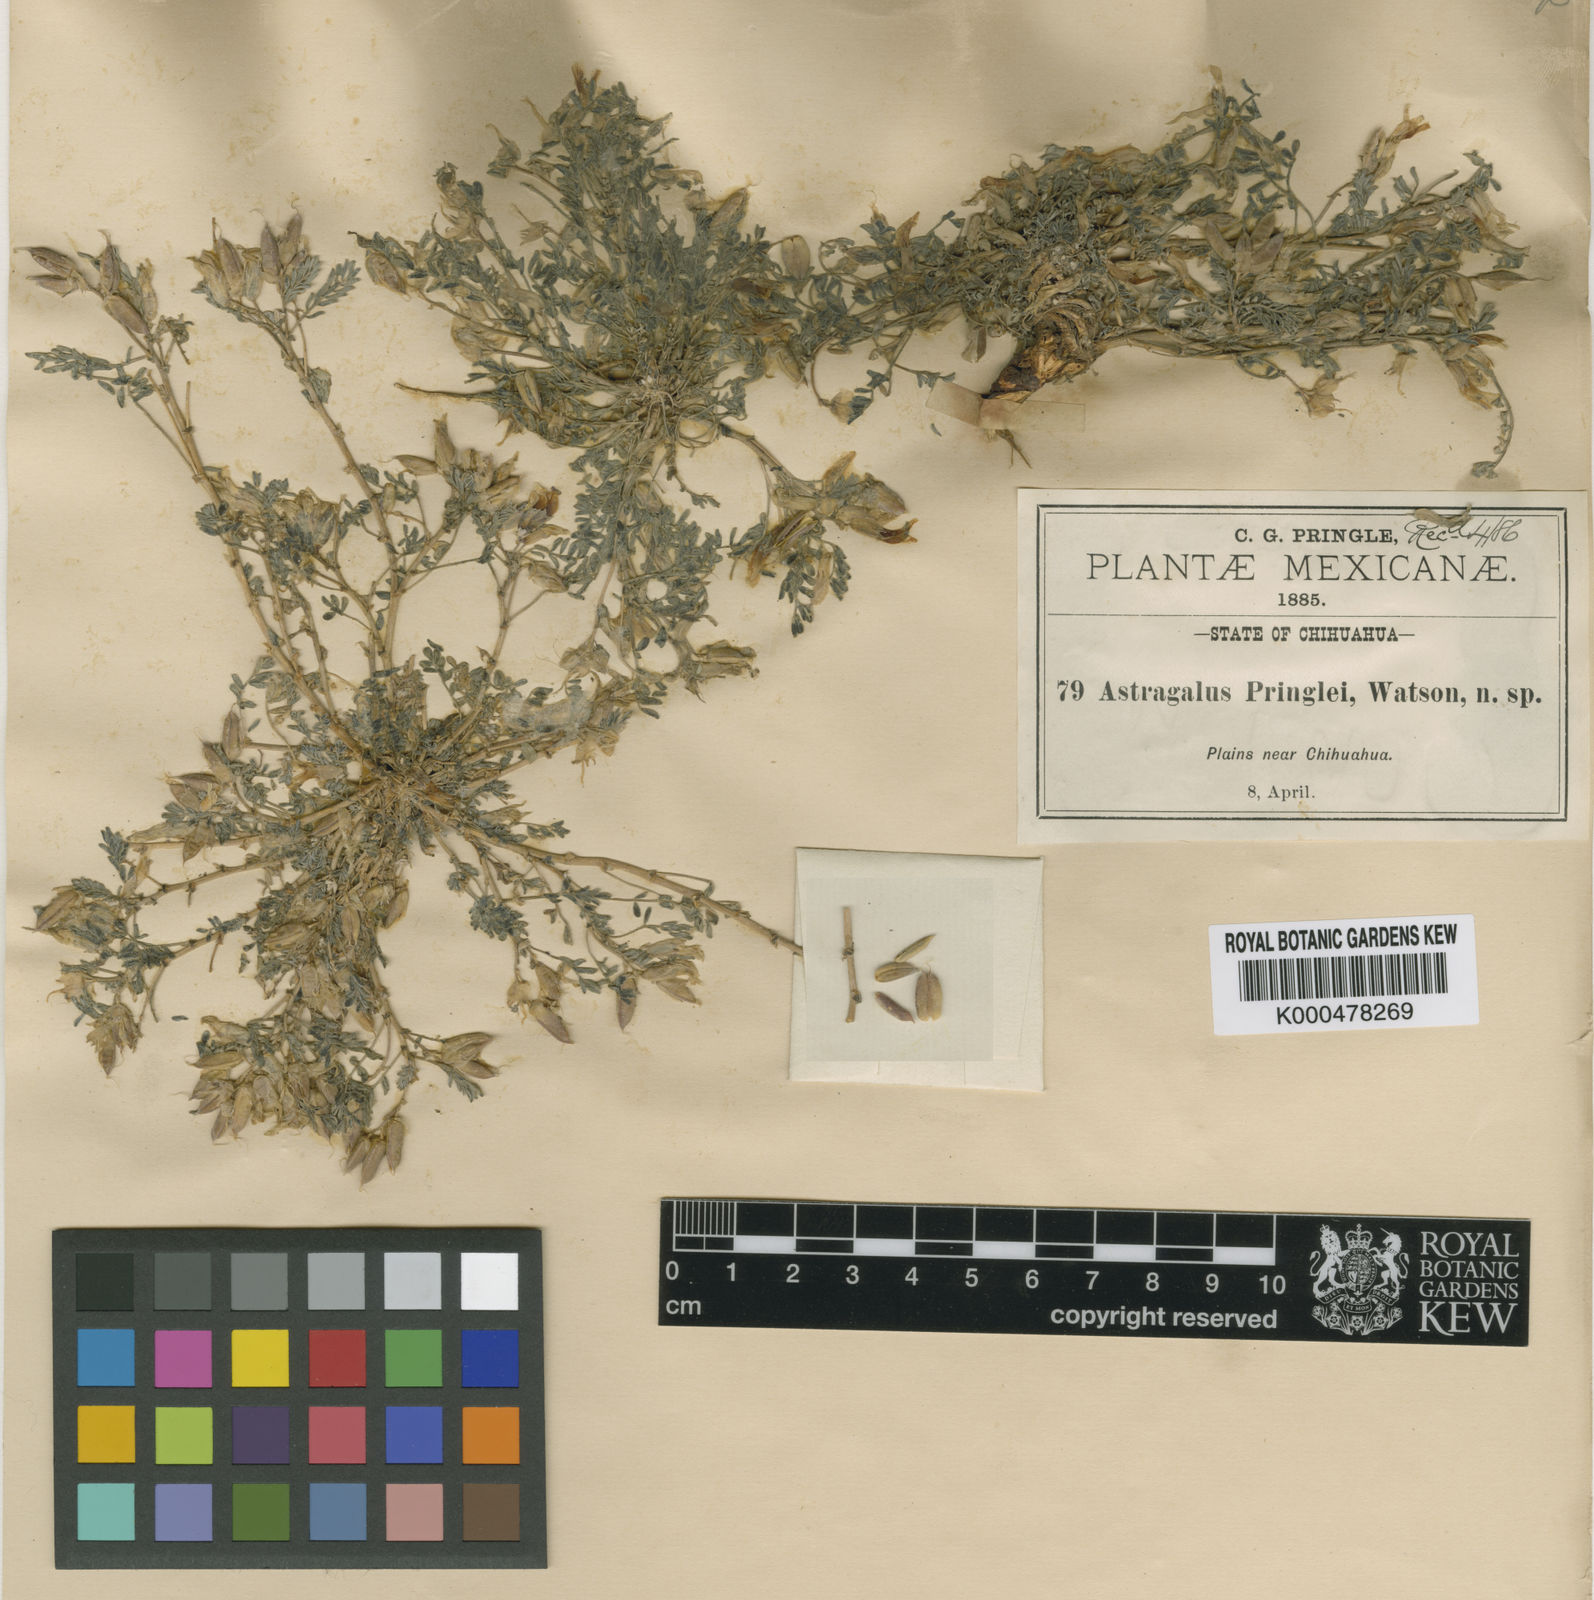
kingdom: Plantae
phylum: Tracheophyta
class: Magnoliopsida
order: Fabales
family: Fabaceae
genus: Astragalus
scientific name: Astragalus pringlei
